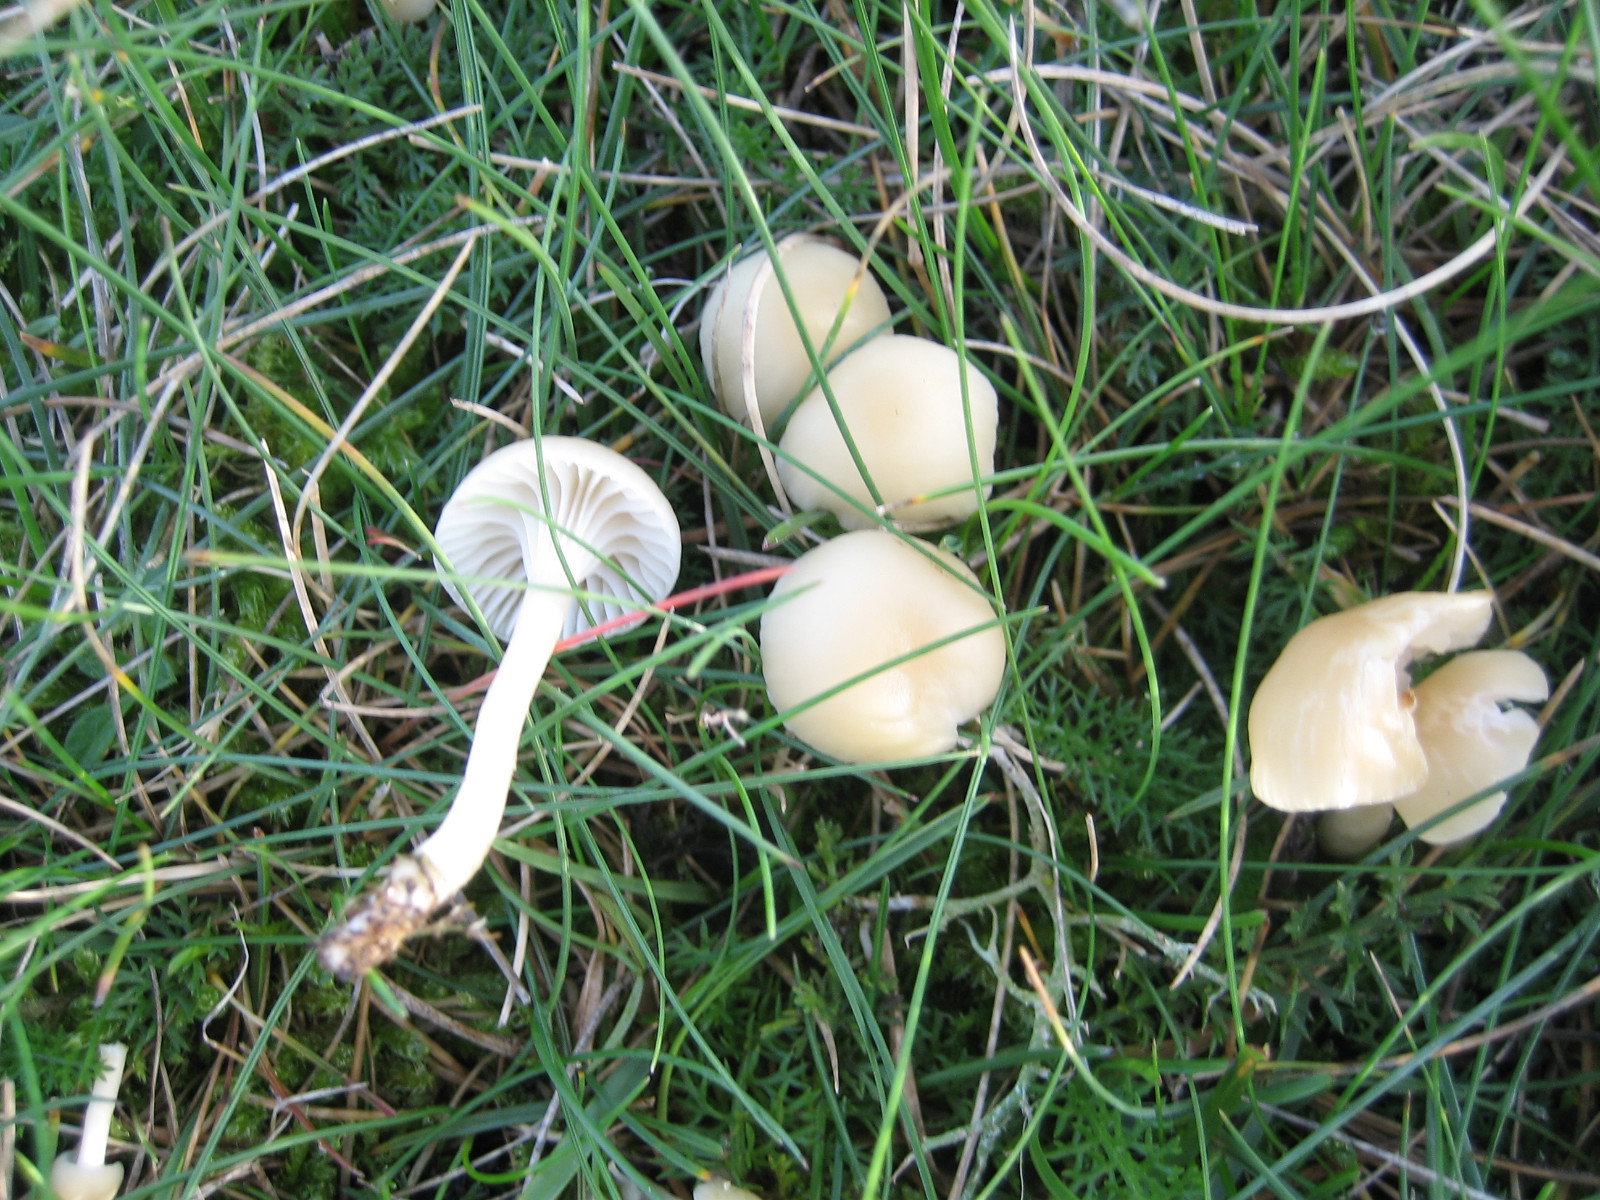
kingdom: Fungi
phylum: Basidiomycota
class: Agaricomycetes
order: Agaricales
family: Hygrophoraceae
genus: Cuphophyllus
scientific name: Cuphophyllus russocoriaceus
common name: ruslæder-vokshat
